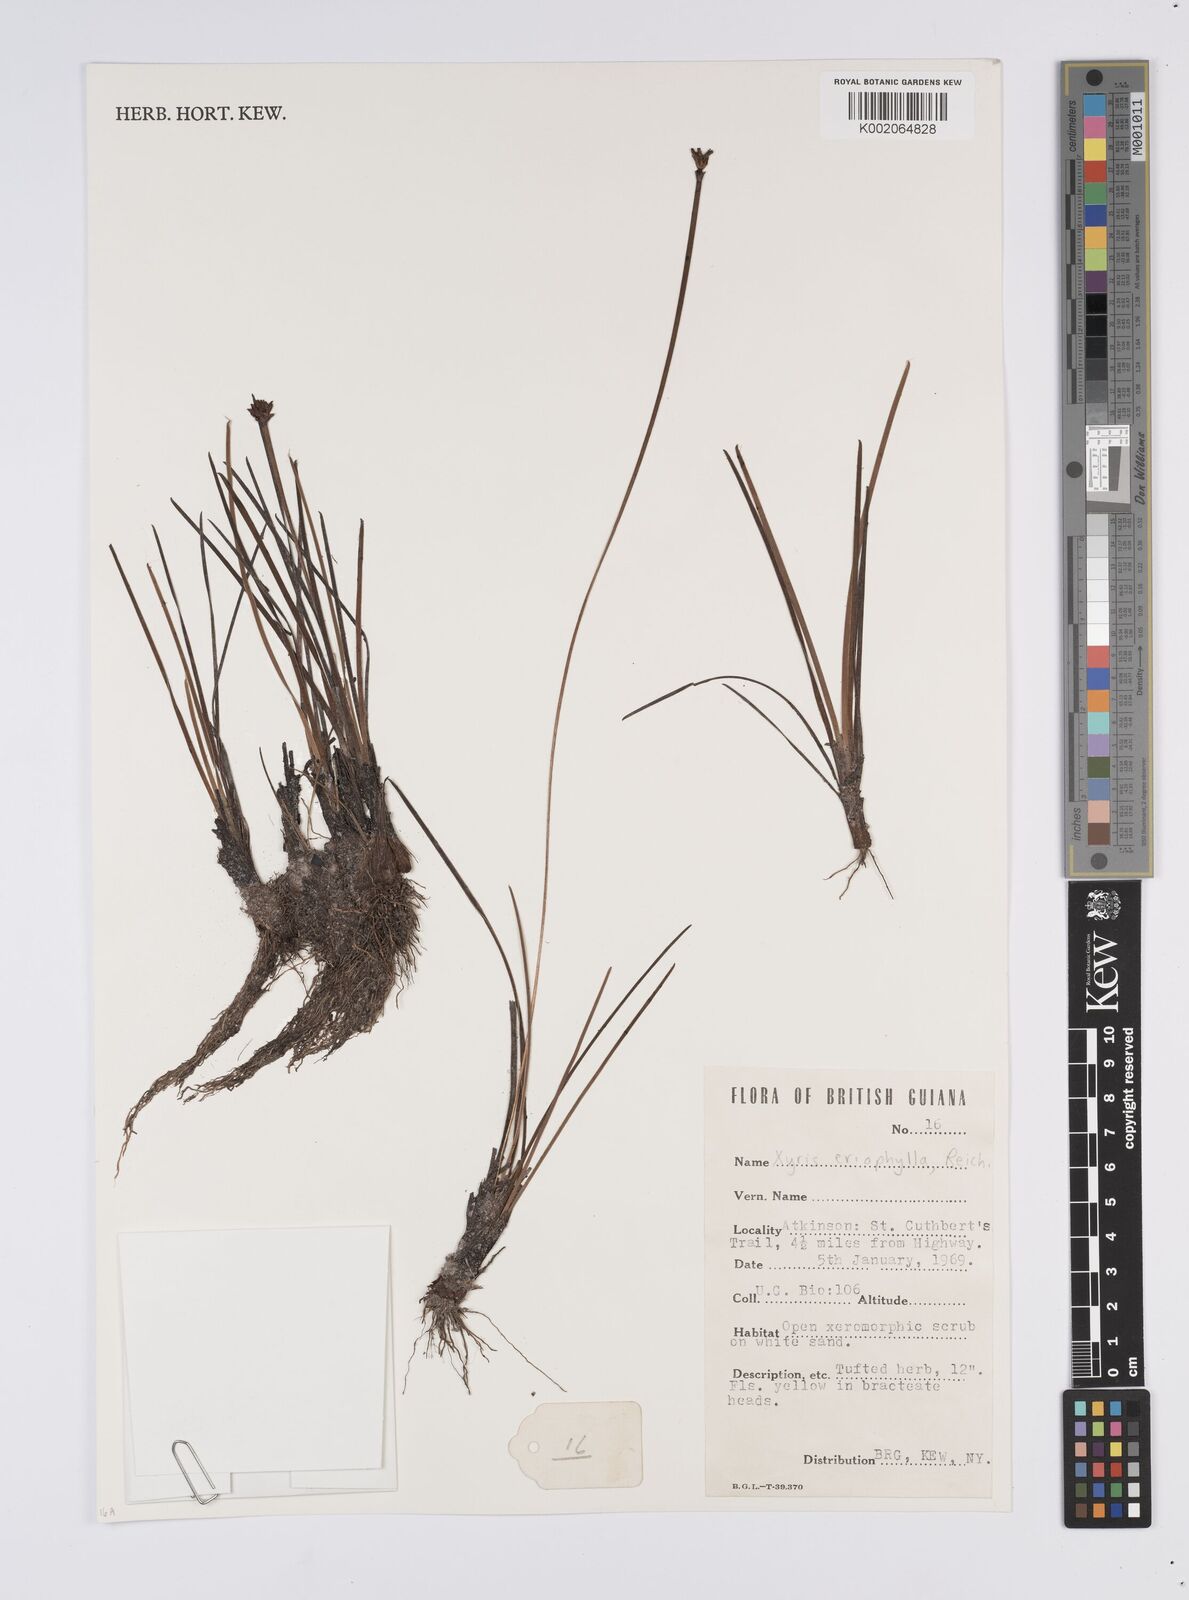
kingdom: Plantae
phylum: Tracheophyta
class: Liliopsida
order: Poales
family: Xyridaceae
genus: Xyris
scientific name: Xyris surinamensis
